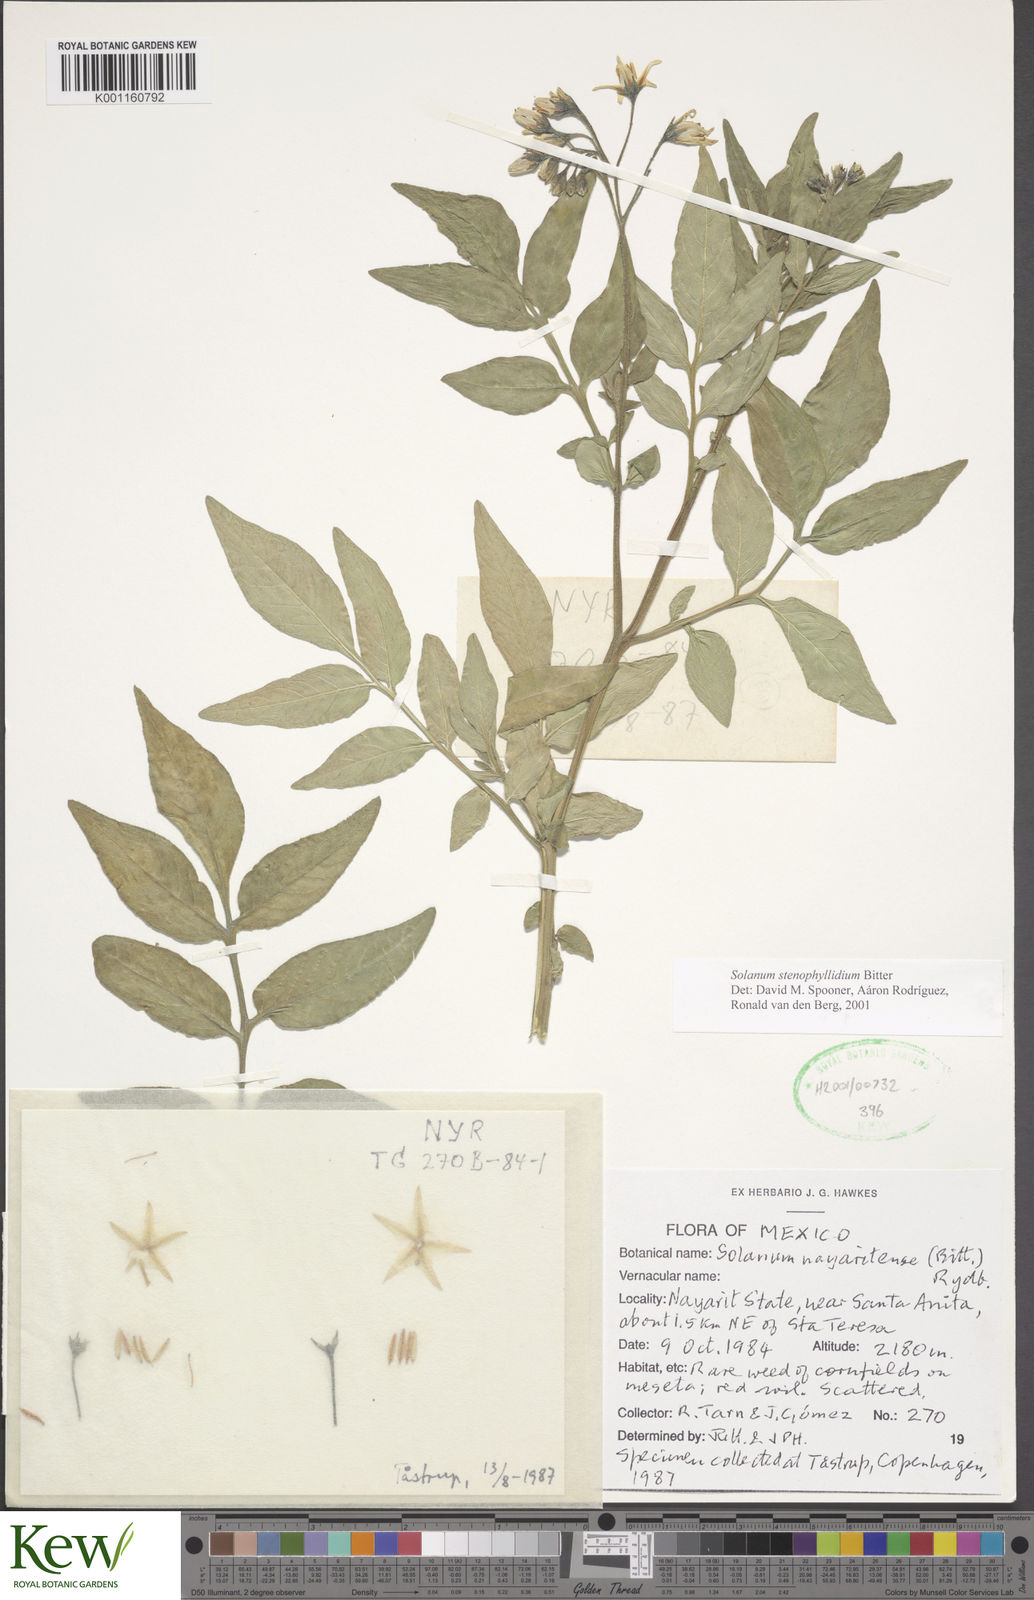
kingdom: Plantae
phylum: Tracheophyta
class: Magnoliopsida
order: Solanales
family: Solanaceae
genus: Solanum
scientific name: Solanum stenophyllidium
